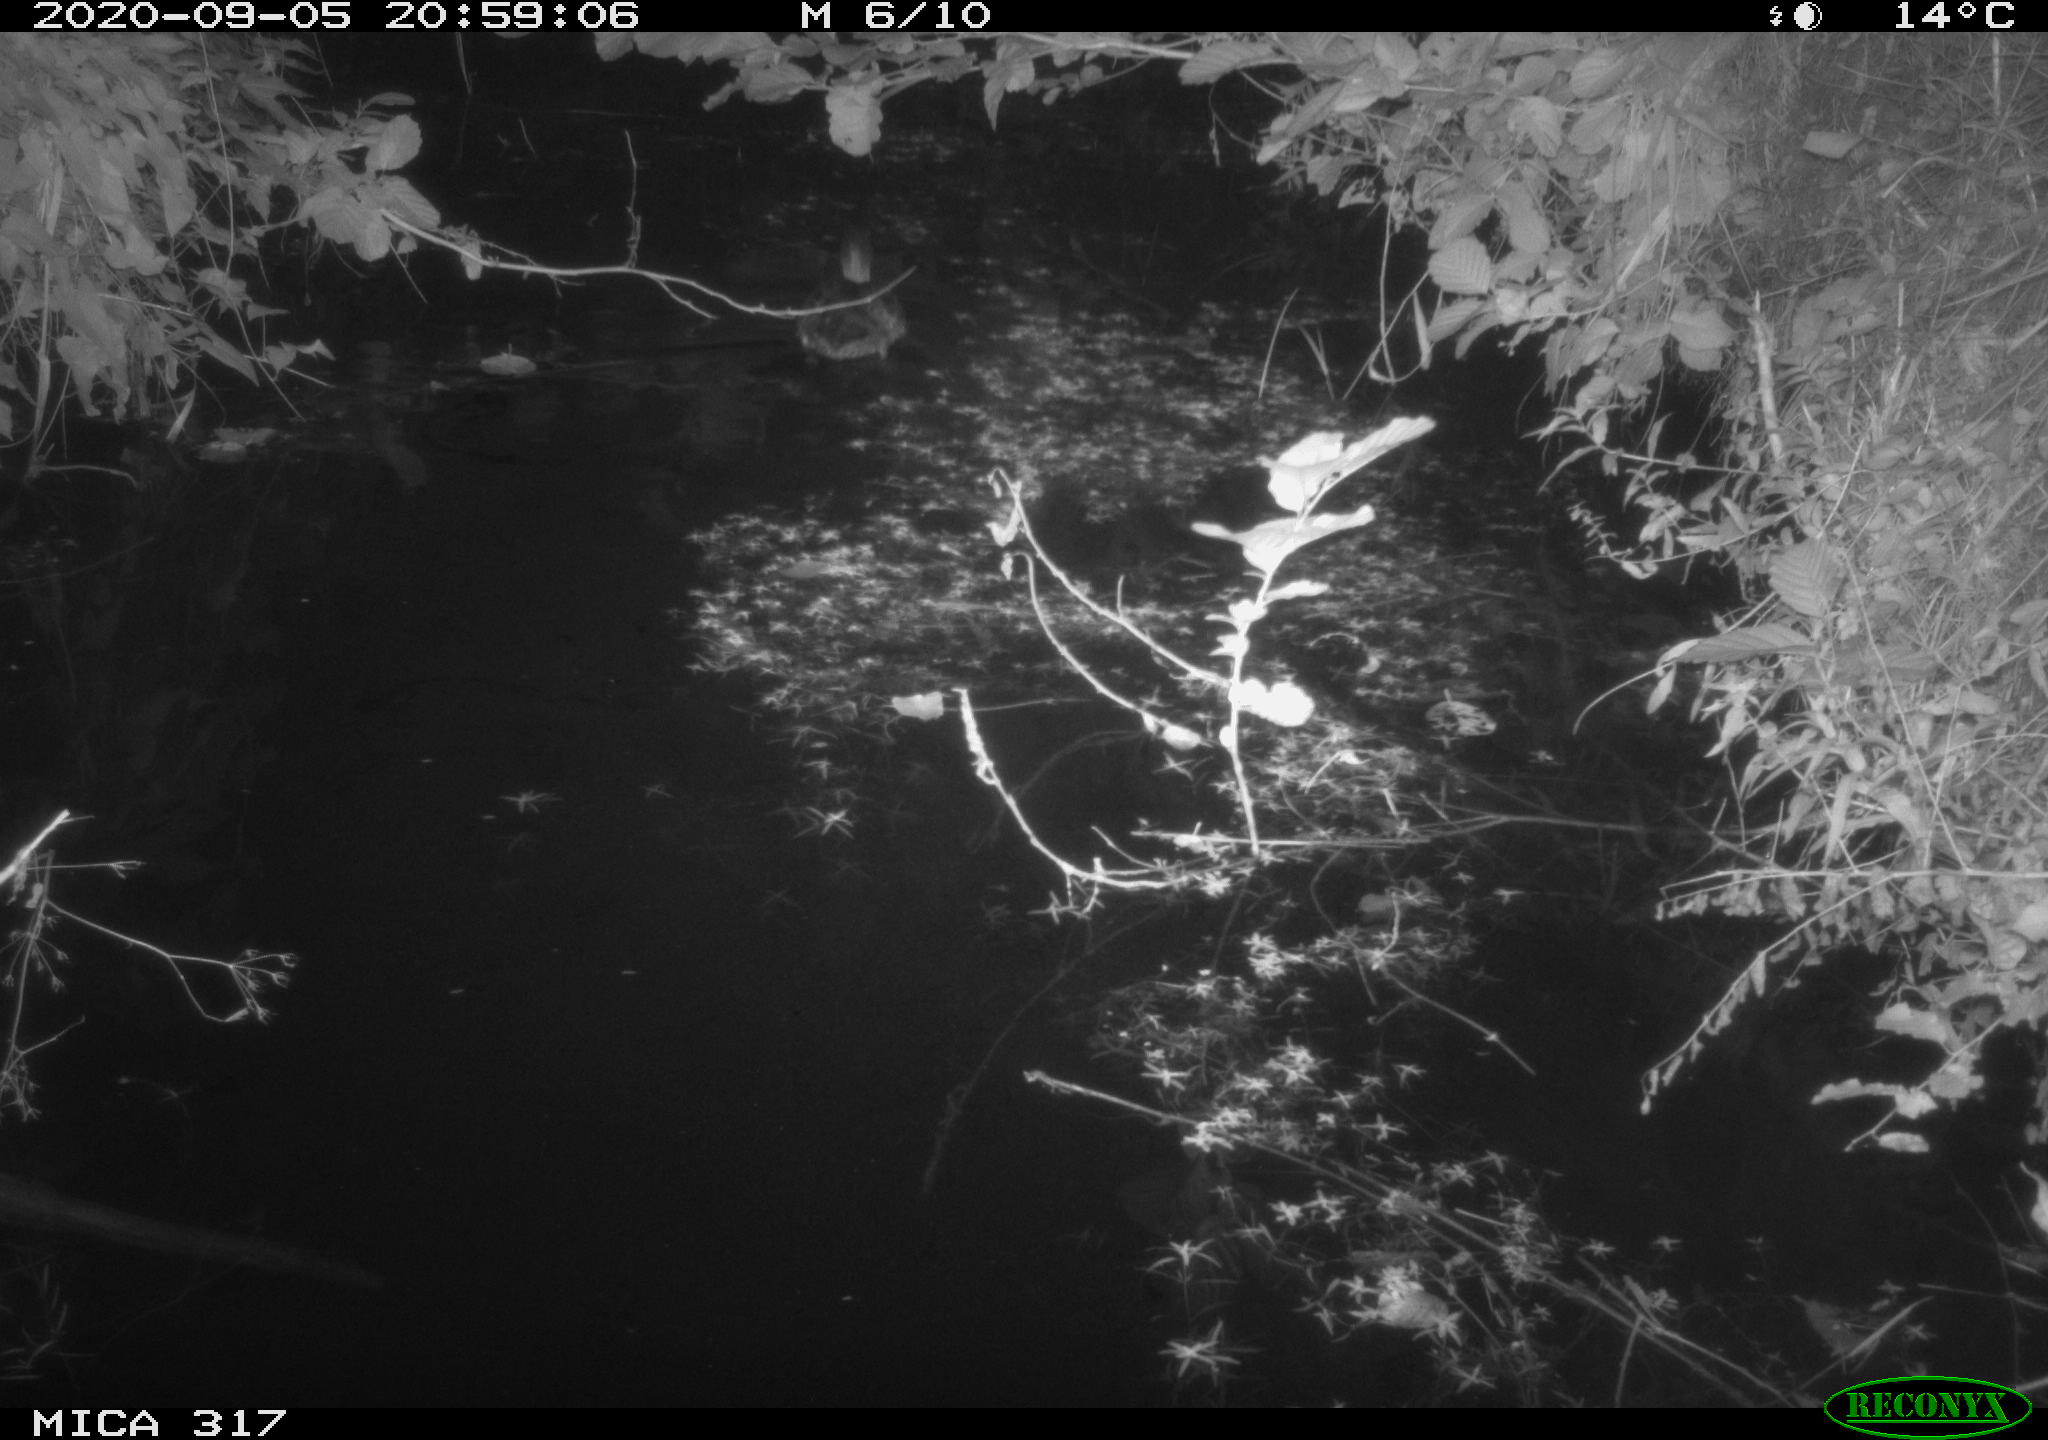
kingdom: Animalia
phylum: Chordata
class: Aves
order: Anseriformes
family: Anatidae
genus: Anas
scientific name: Anas platyrhynchos
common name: Mallard
